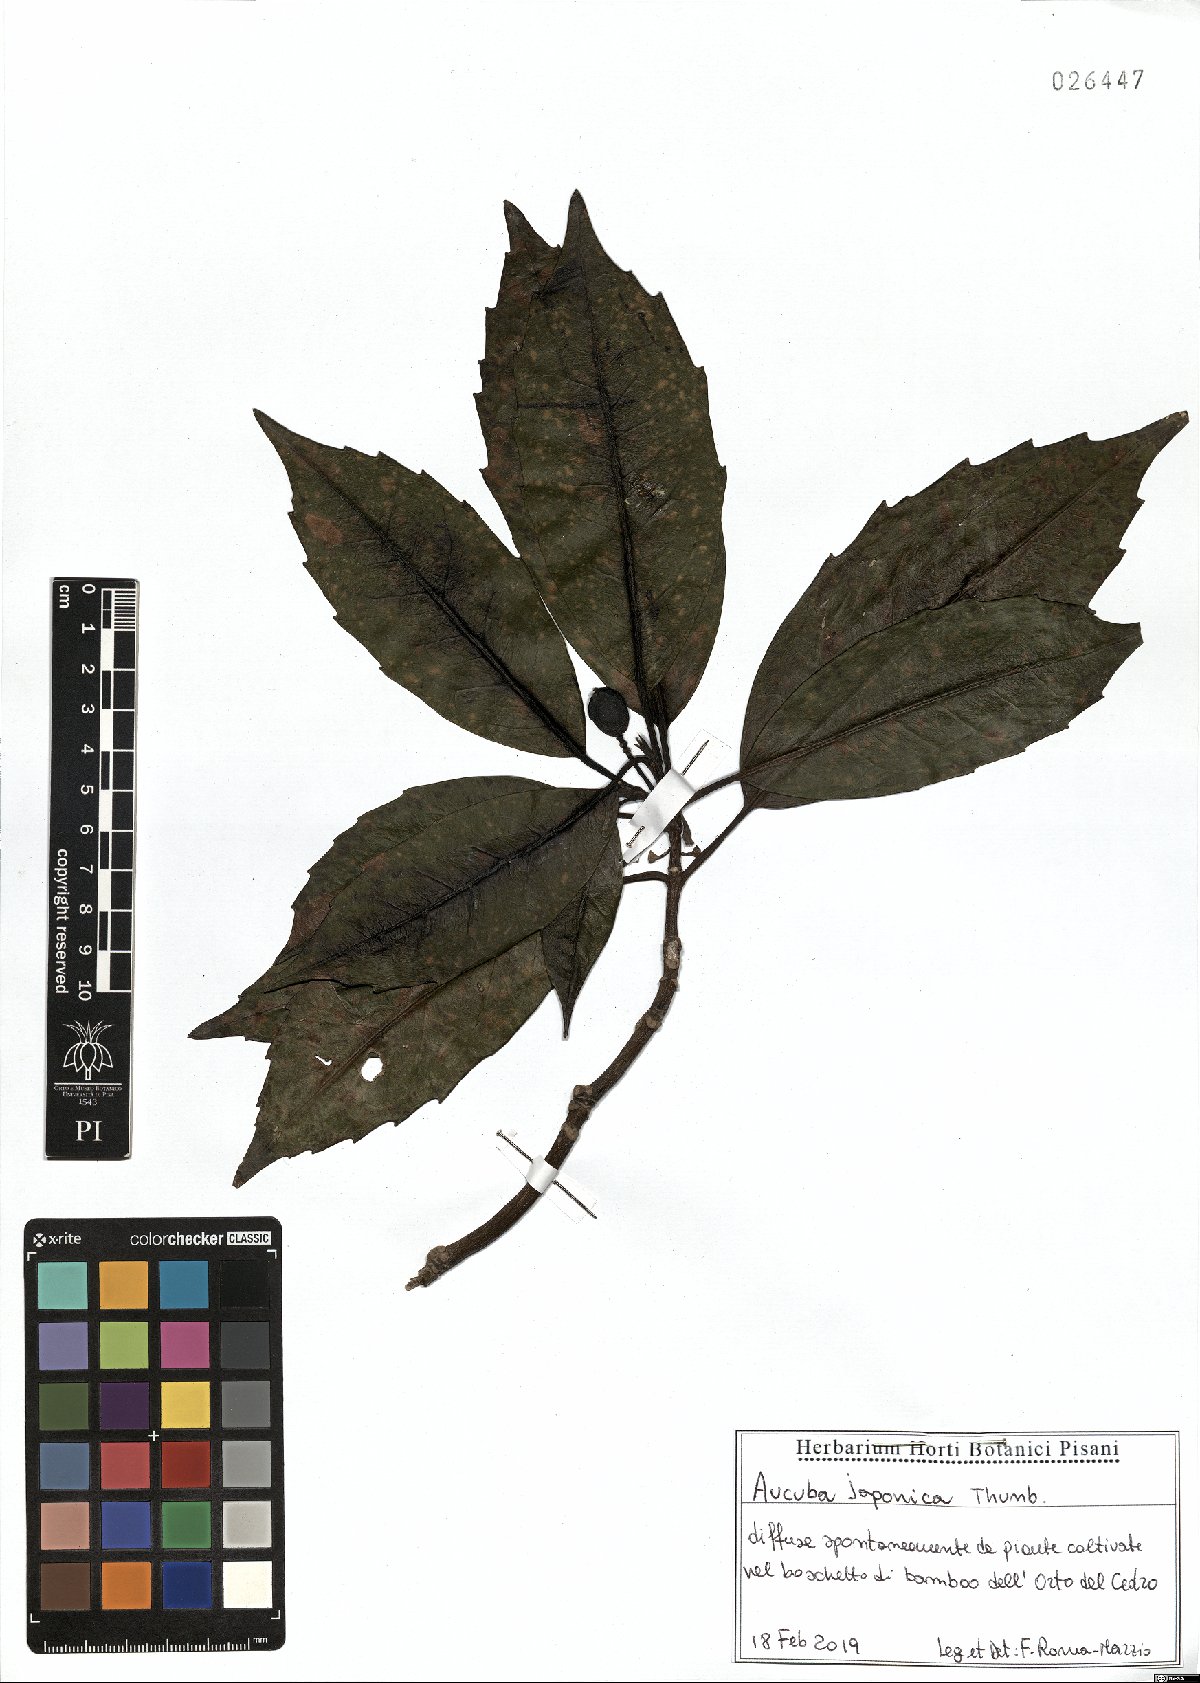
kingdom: Plantae
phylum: Tracheophyta
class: Magnoliopsida
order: Garryales
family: Garryaceae
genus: Aucuba
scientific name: Aucuba japonica
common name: Spotted-laurel
